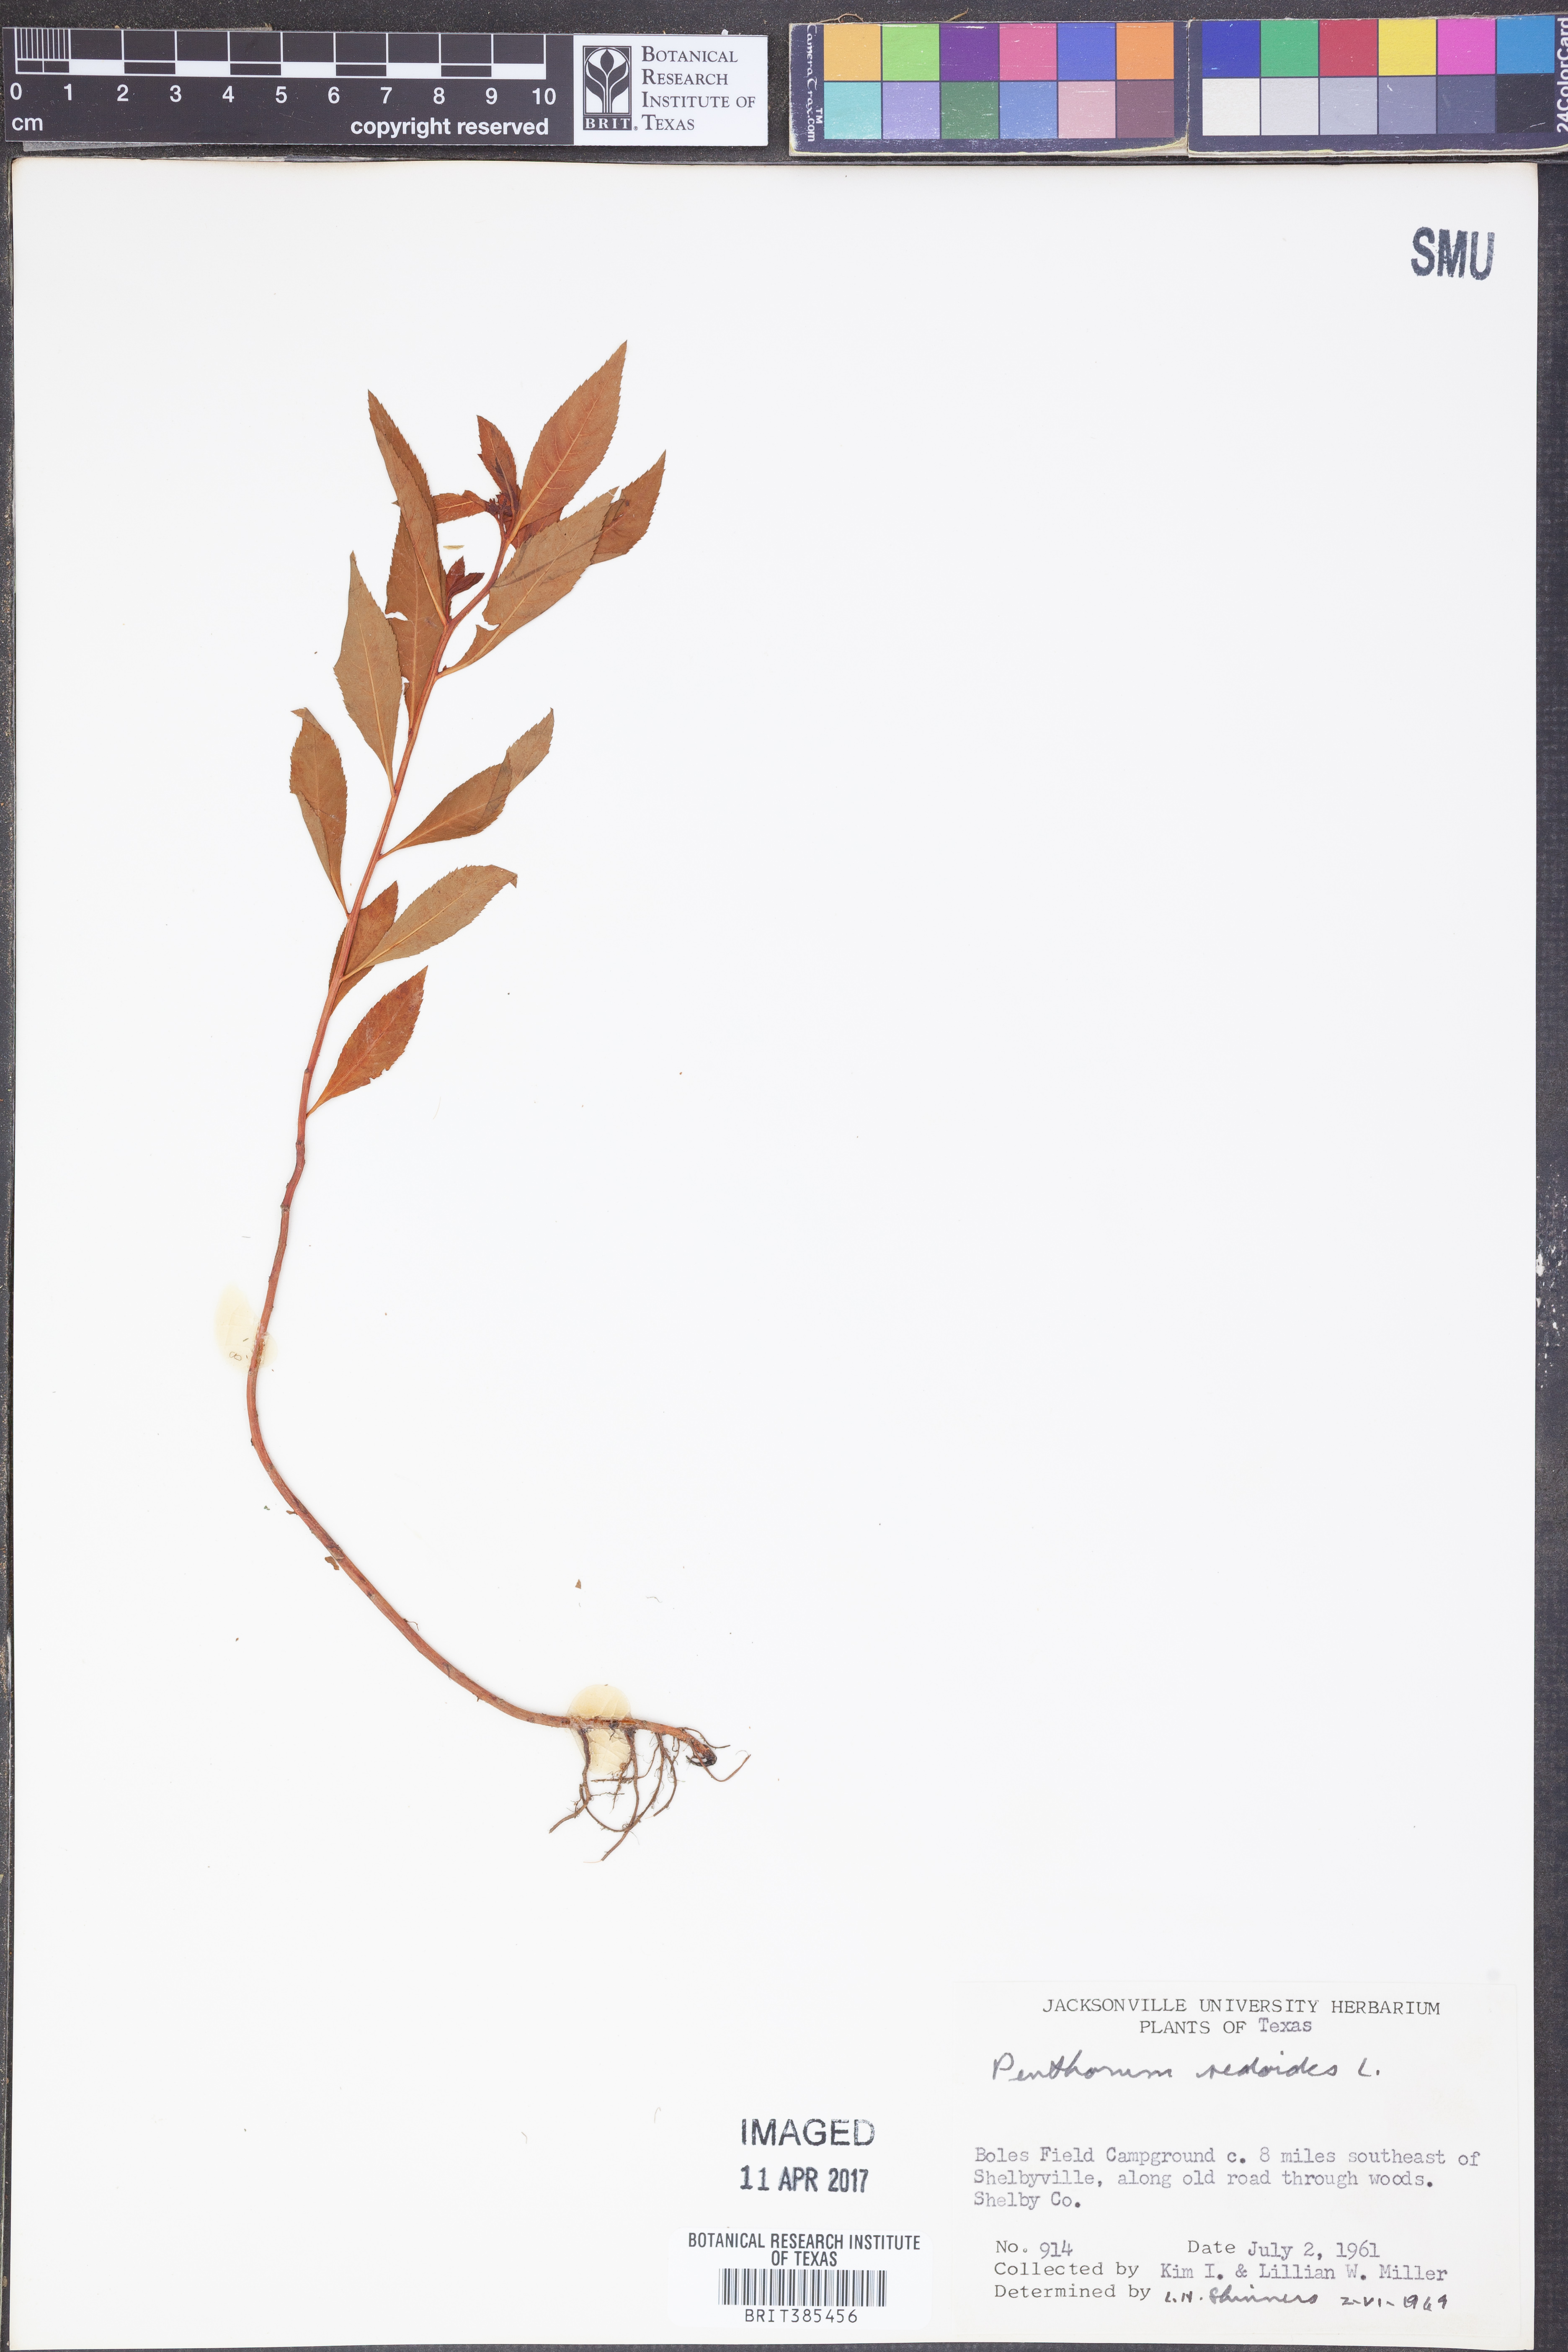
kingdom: Plantae
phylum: Tracheophyta
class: Magnoliopsida
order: Saxifragales
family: Penthoraceae
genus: Penthorum
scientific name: Penthorum sedoides
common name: Ditch stonecrop
